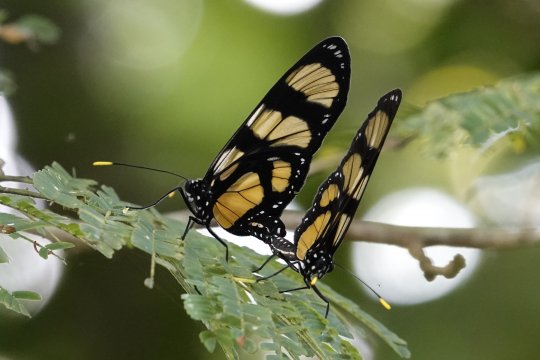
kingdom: Animalia
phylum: Arthropoda
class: Insecta
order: Lepidoptera
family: Nymphalidae
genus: Methona
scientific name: Methona confusa
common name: Confusa Tigerwing
